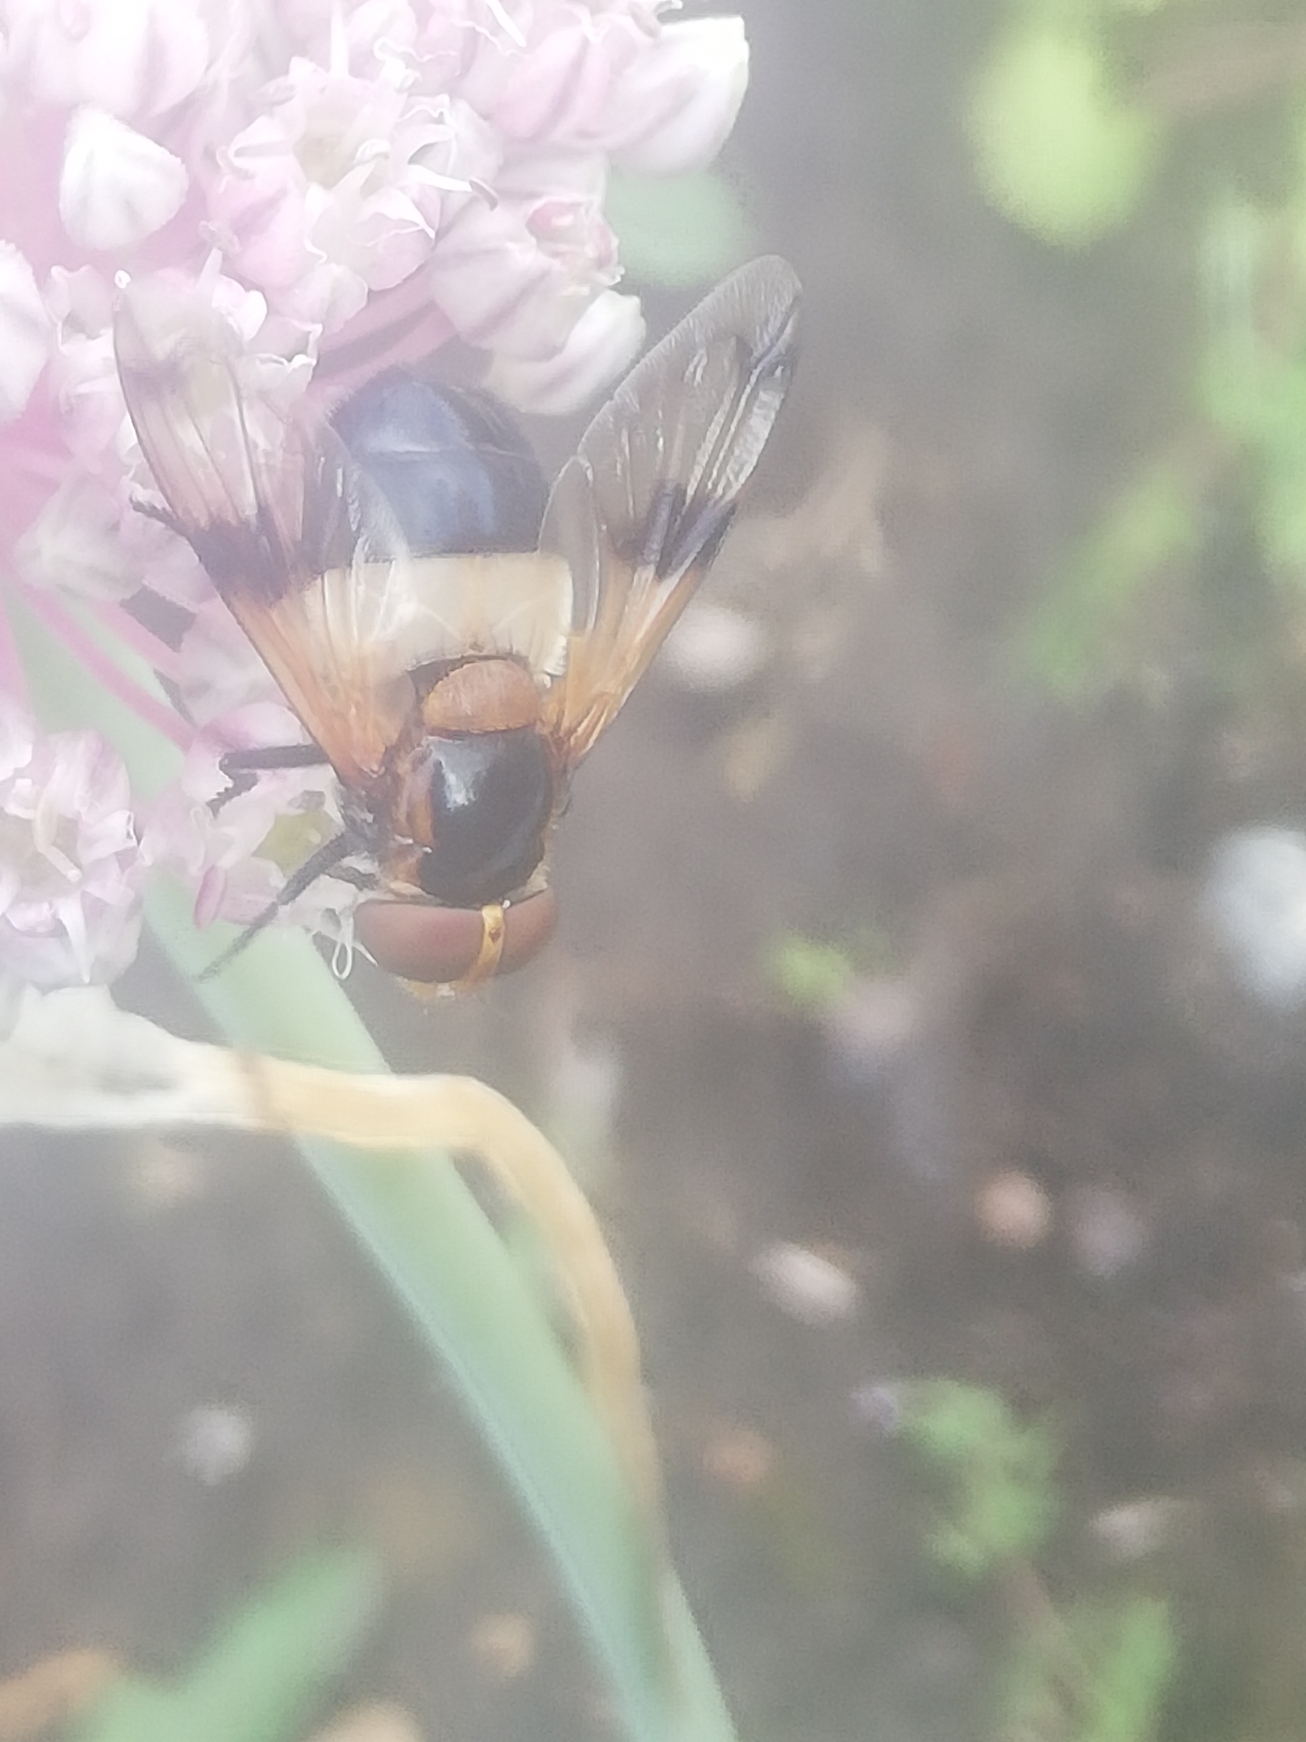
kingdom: Animalia
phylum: Arthropoda
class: Insecta
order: Diptera
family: Syrphidae
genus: Volucella
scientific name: Volucella pellucens
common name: Hvidbåndet humlesvirreflue
